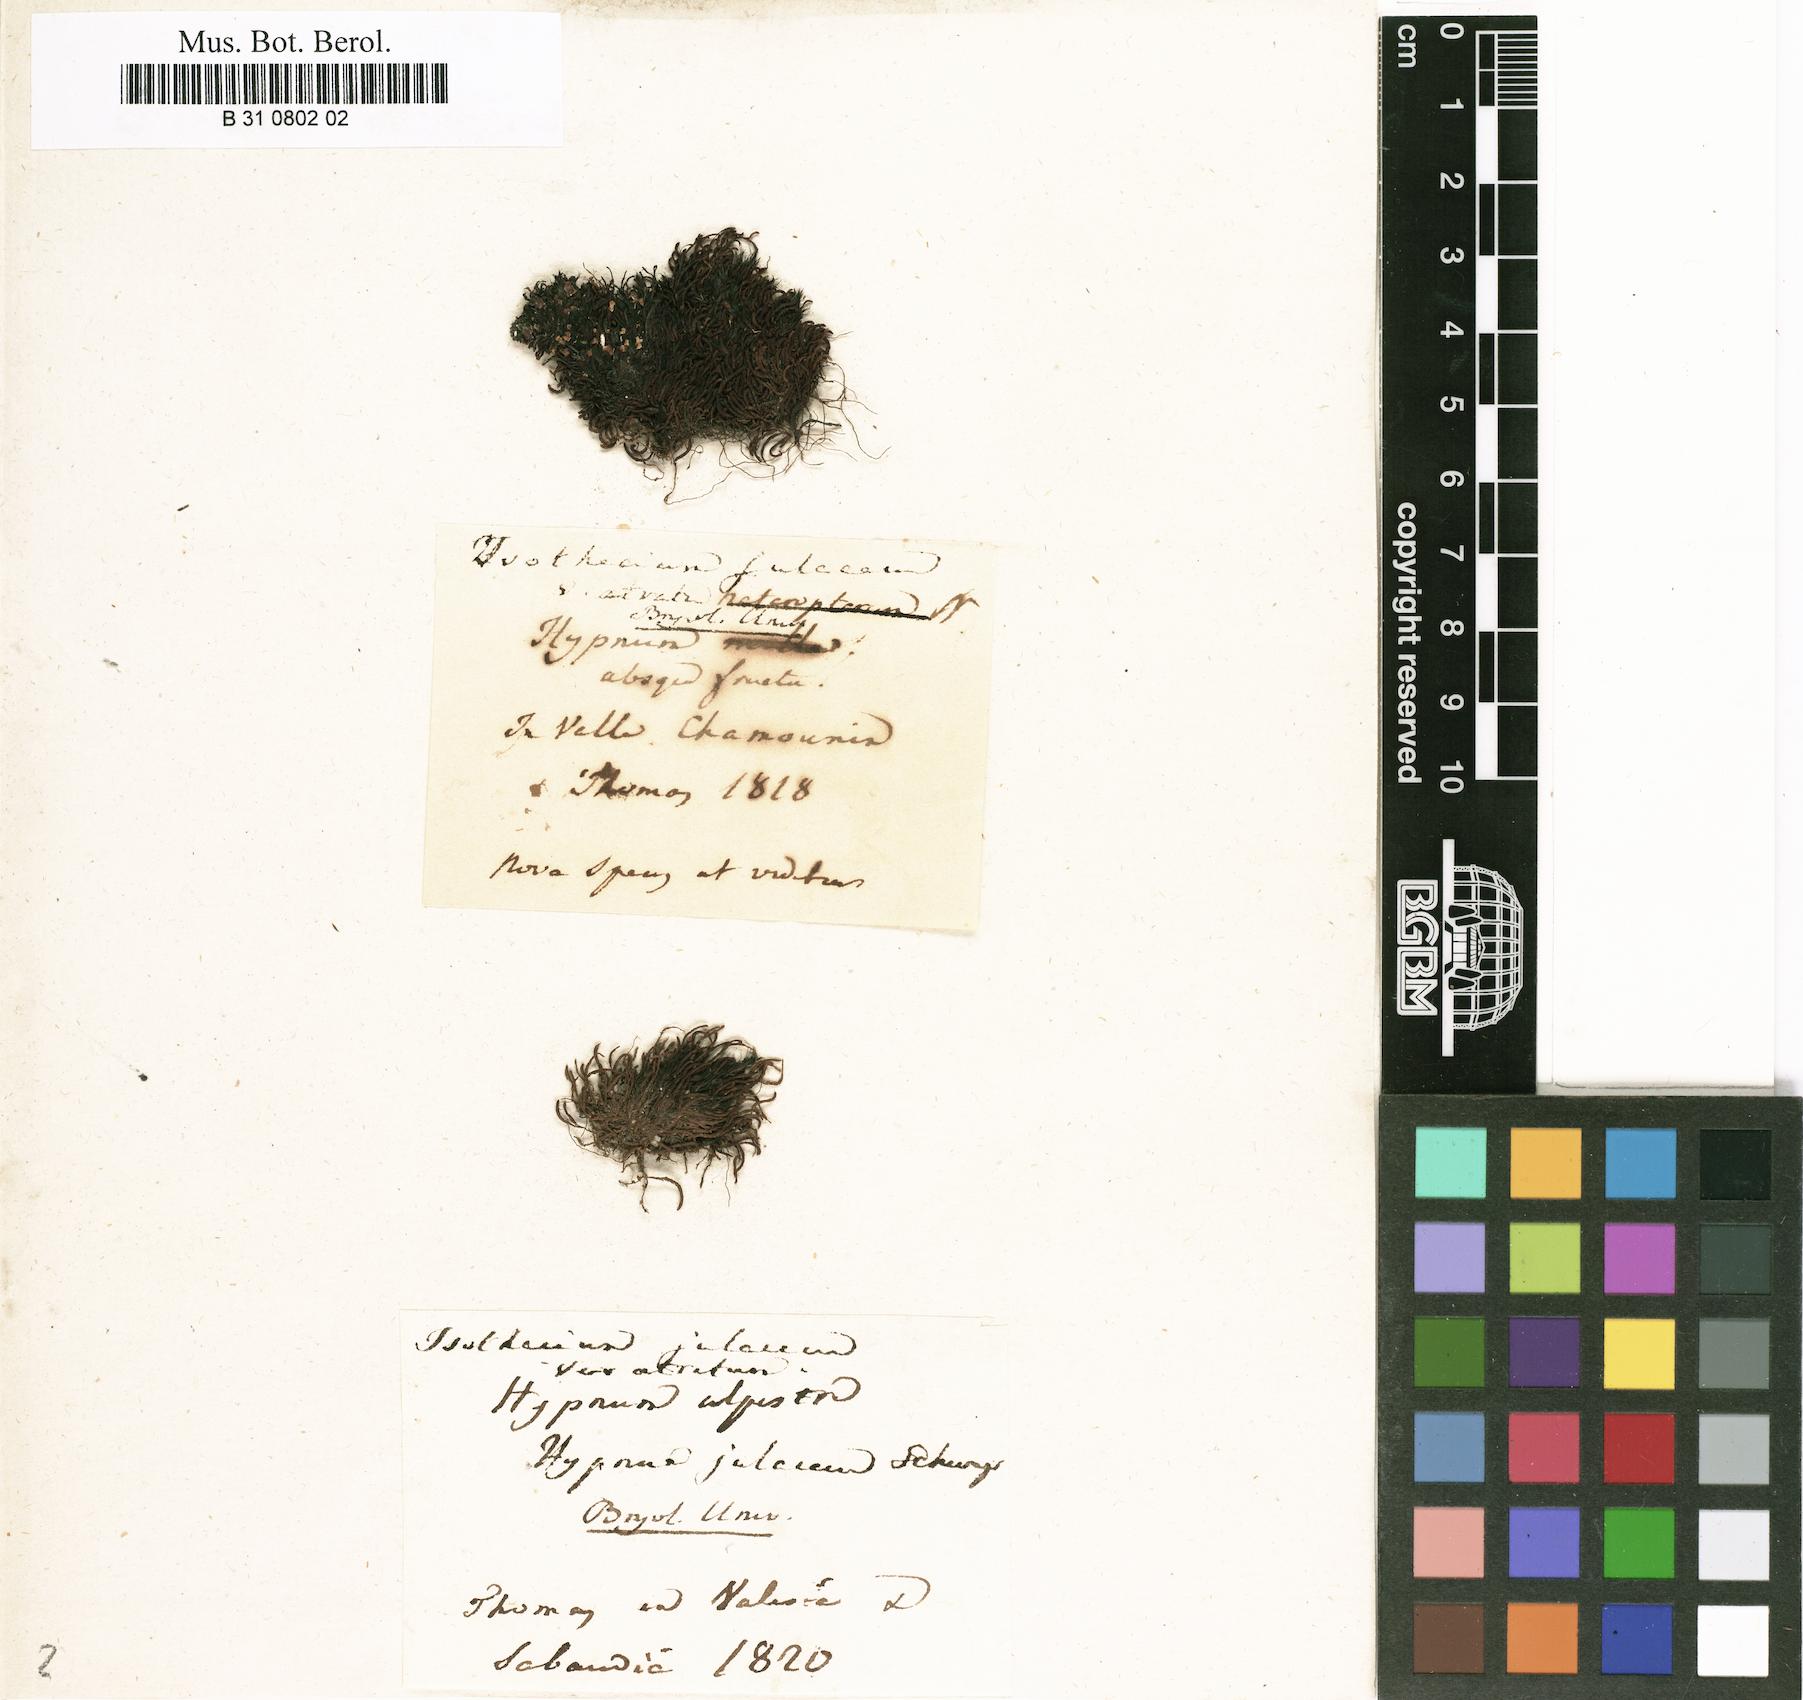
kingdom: Plantae
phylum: Bryophyta
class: Bryopsida
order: Hypnales
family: Plagiotheciaceae
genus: Myurella
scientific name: Myurella julacea
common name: Small mousetail moss
